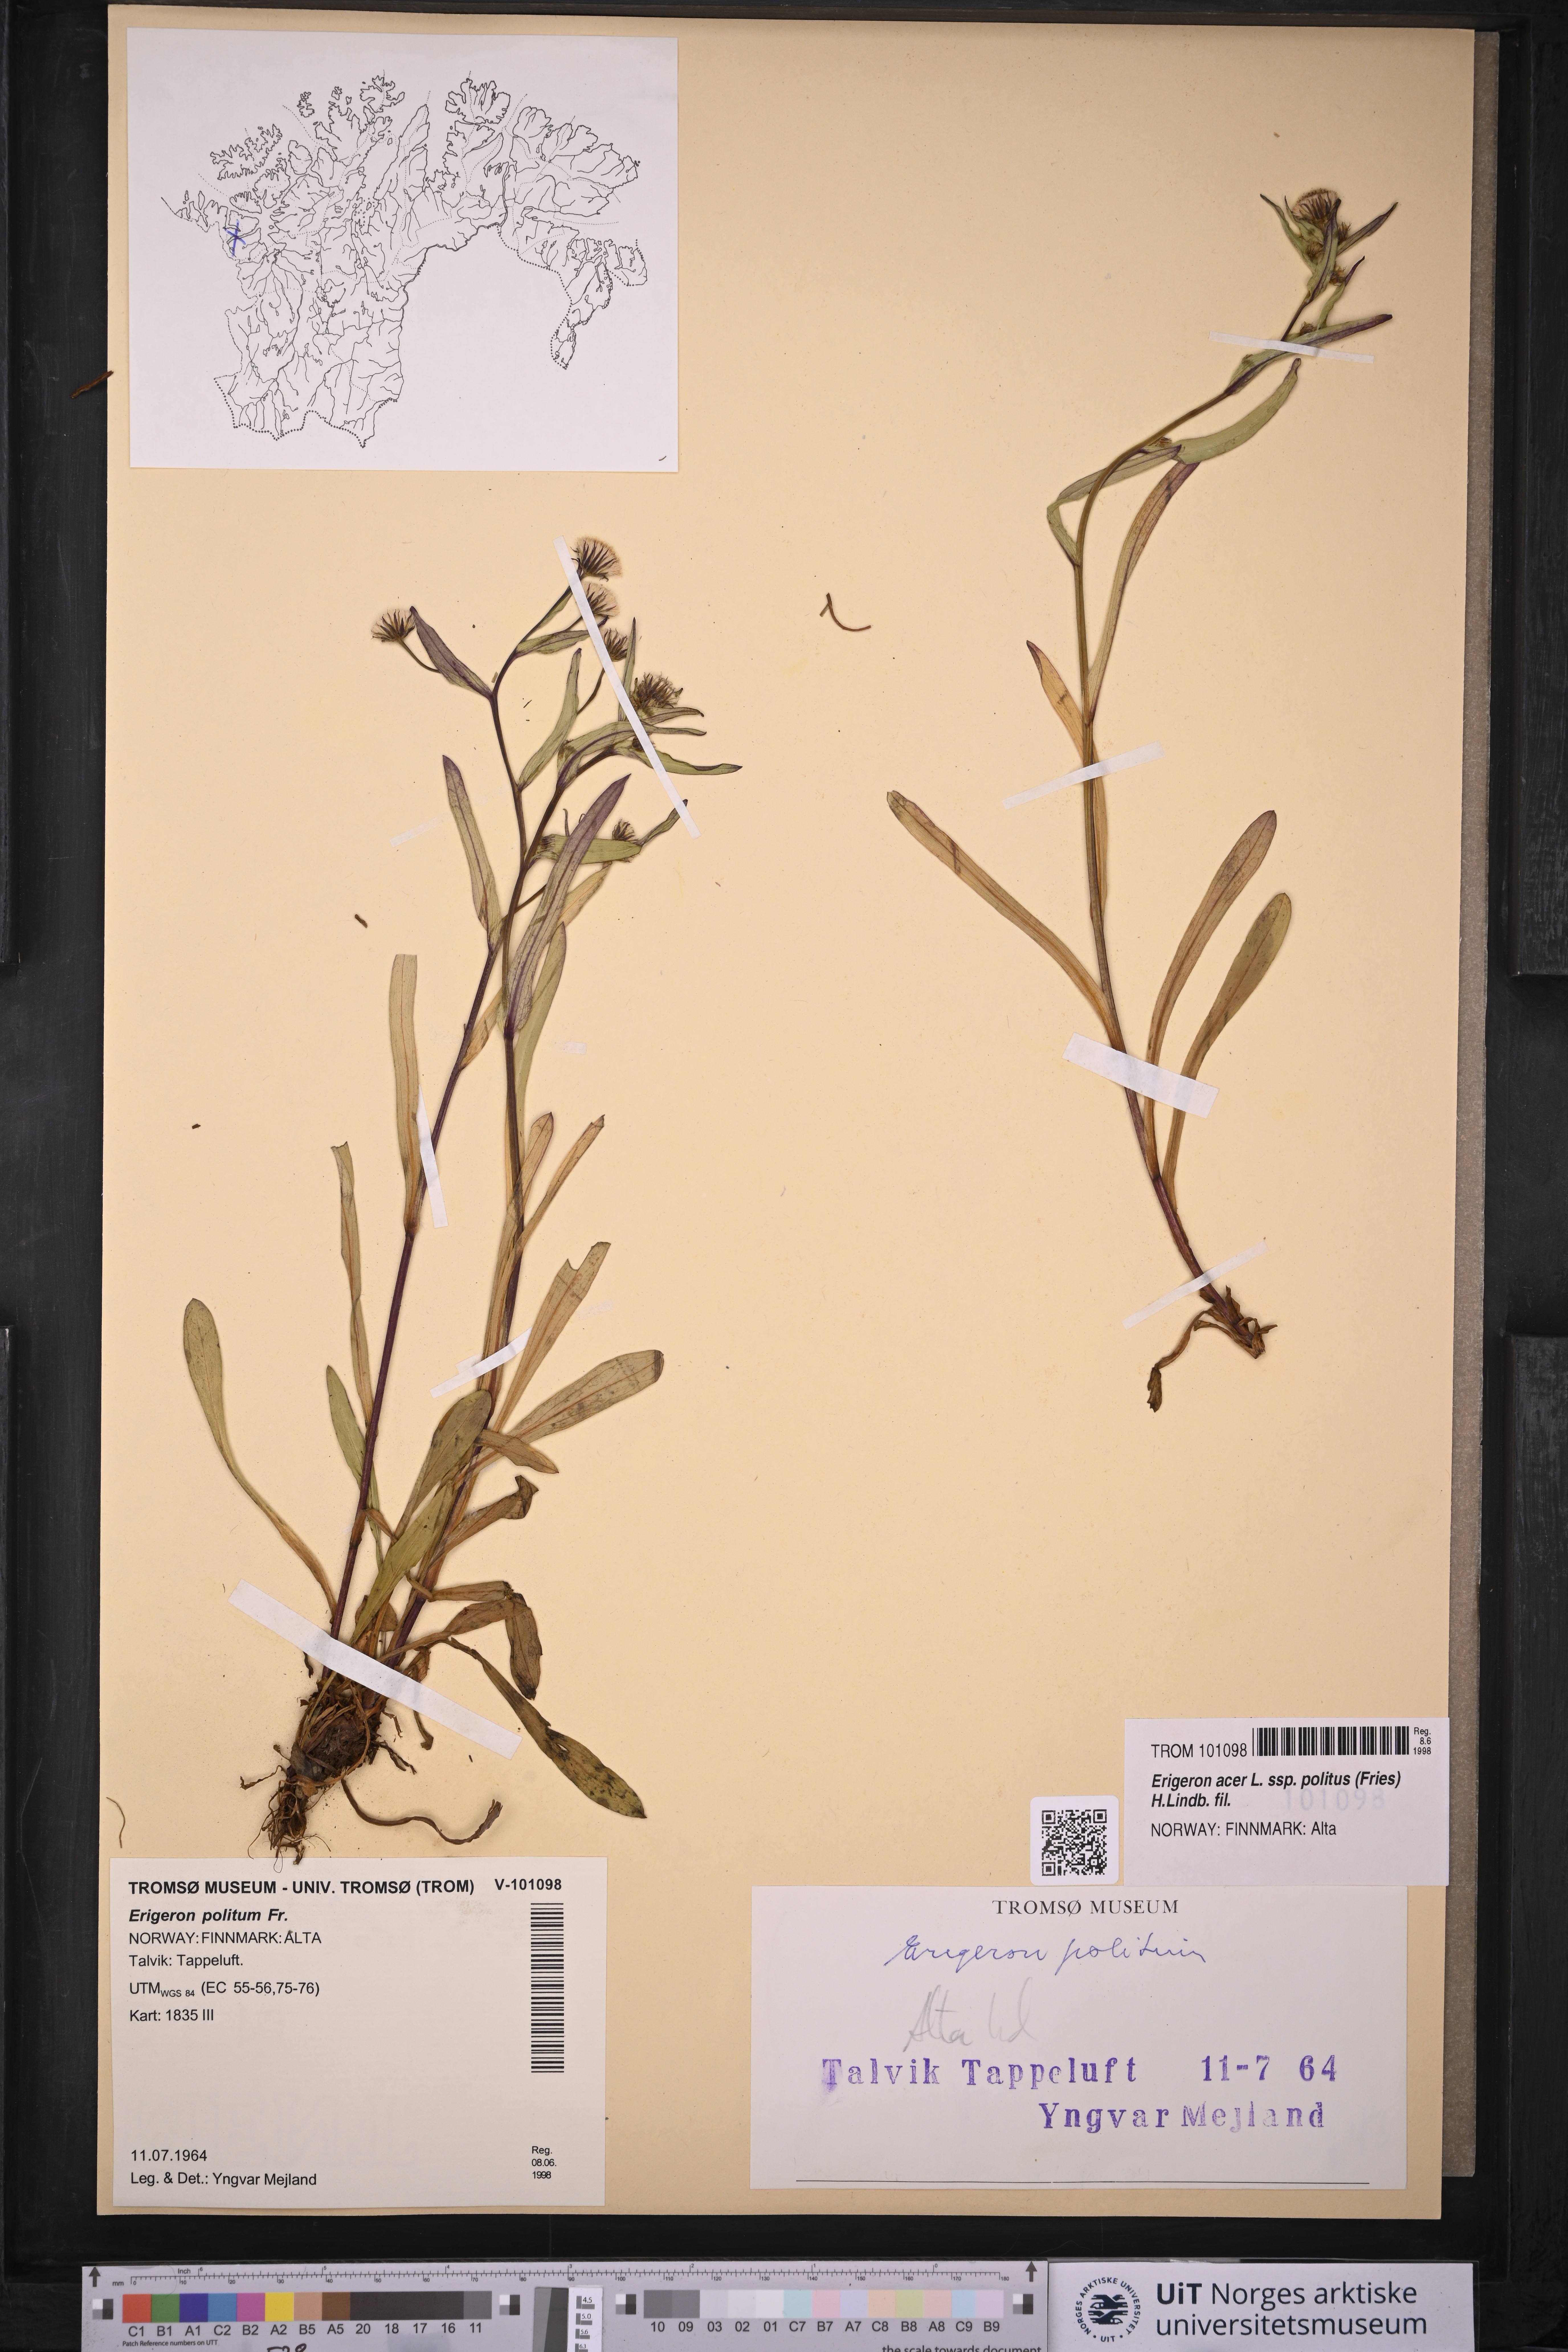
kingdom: Plantae
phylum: Tracheophyta
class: Magnoliopsida
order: Asterales
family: Asteraceae
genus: Erigeron
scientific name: Erigeron politus
